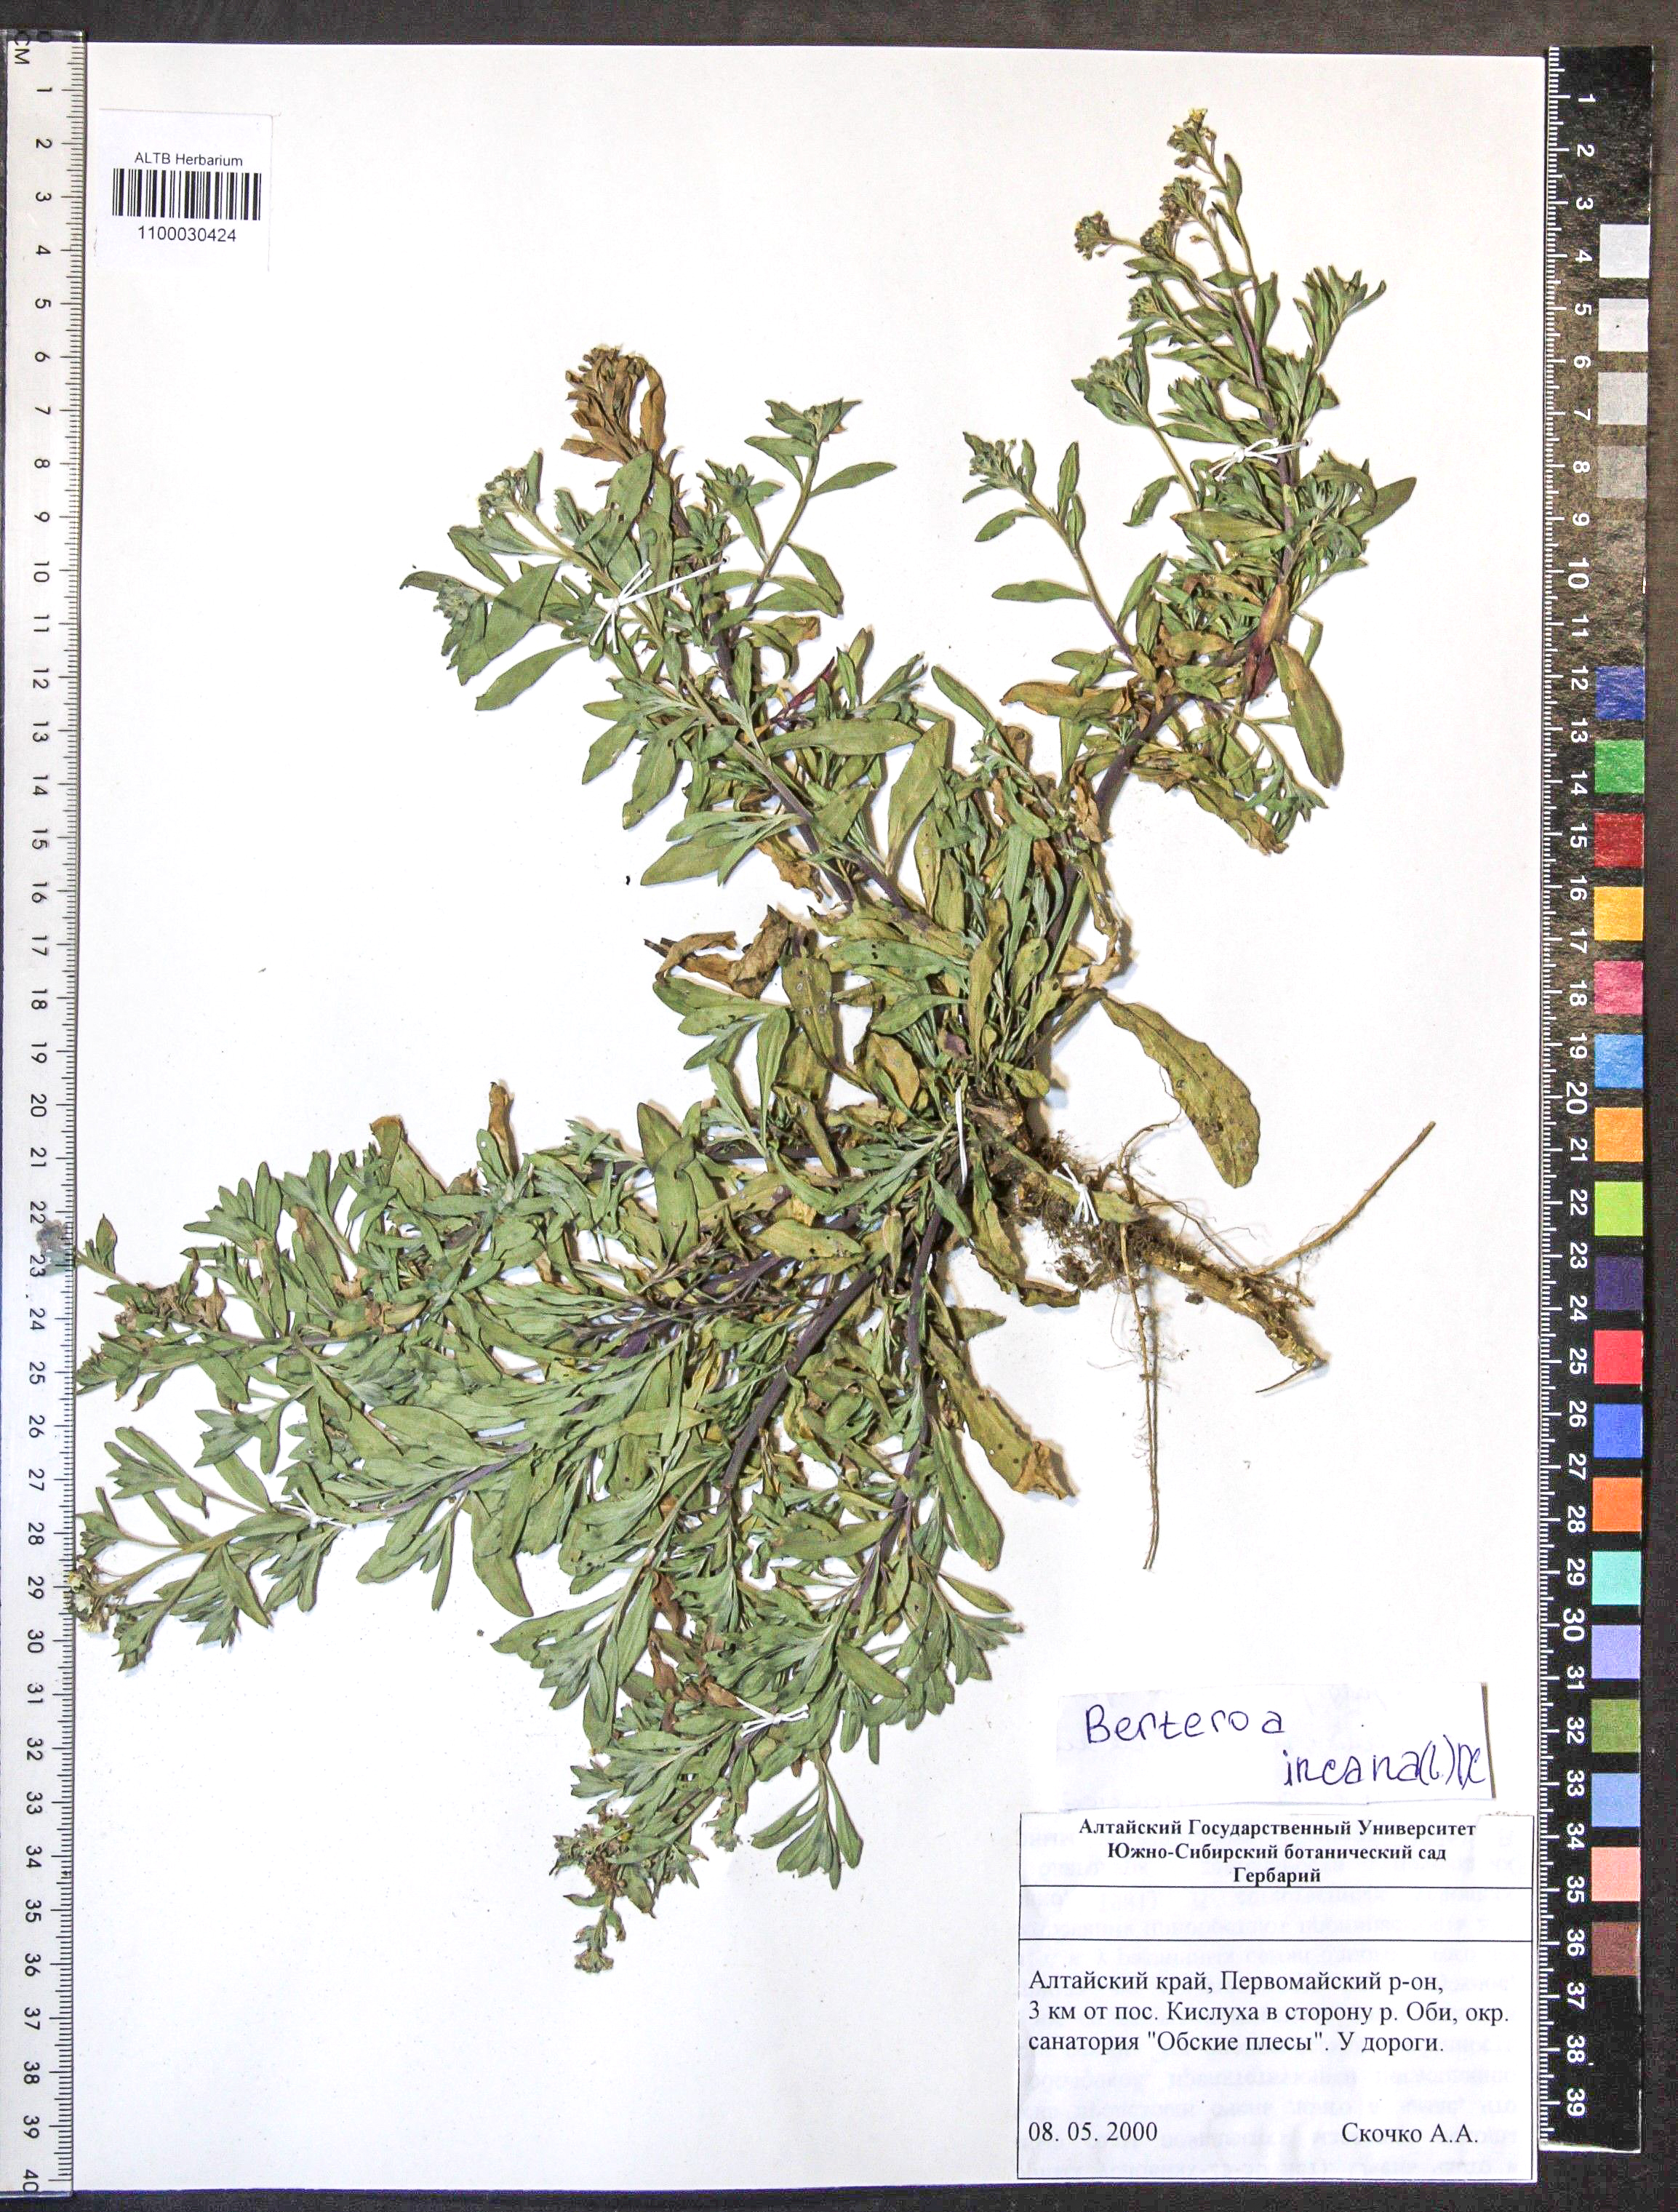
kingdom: Plantae
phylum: Tracheophyta
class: Magnoliopsida
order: Brassicales
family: Brassicaceae
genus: Berteroa
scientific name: Berteroa incana
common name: Hoary alison
